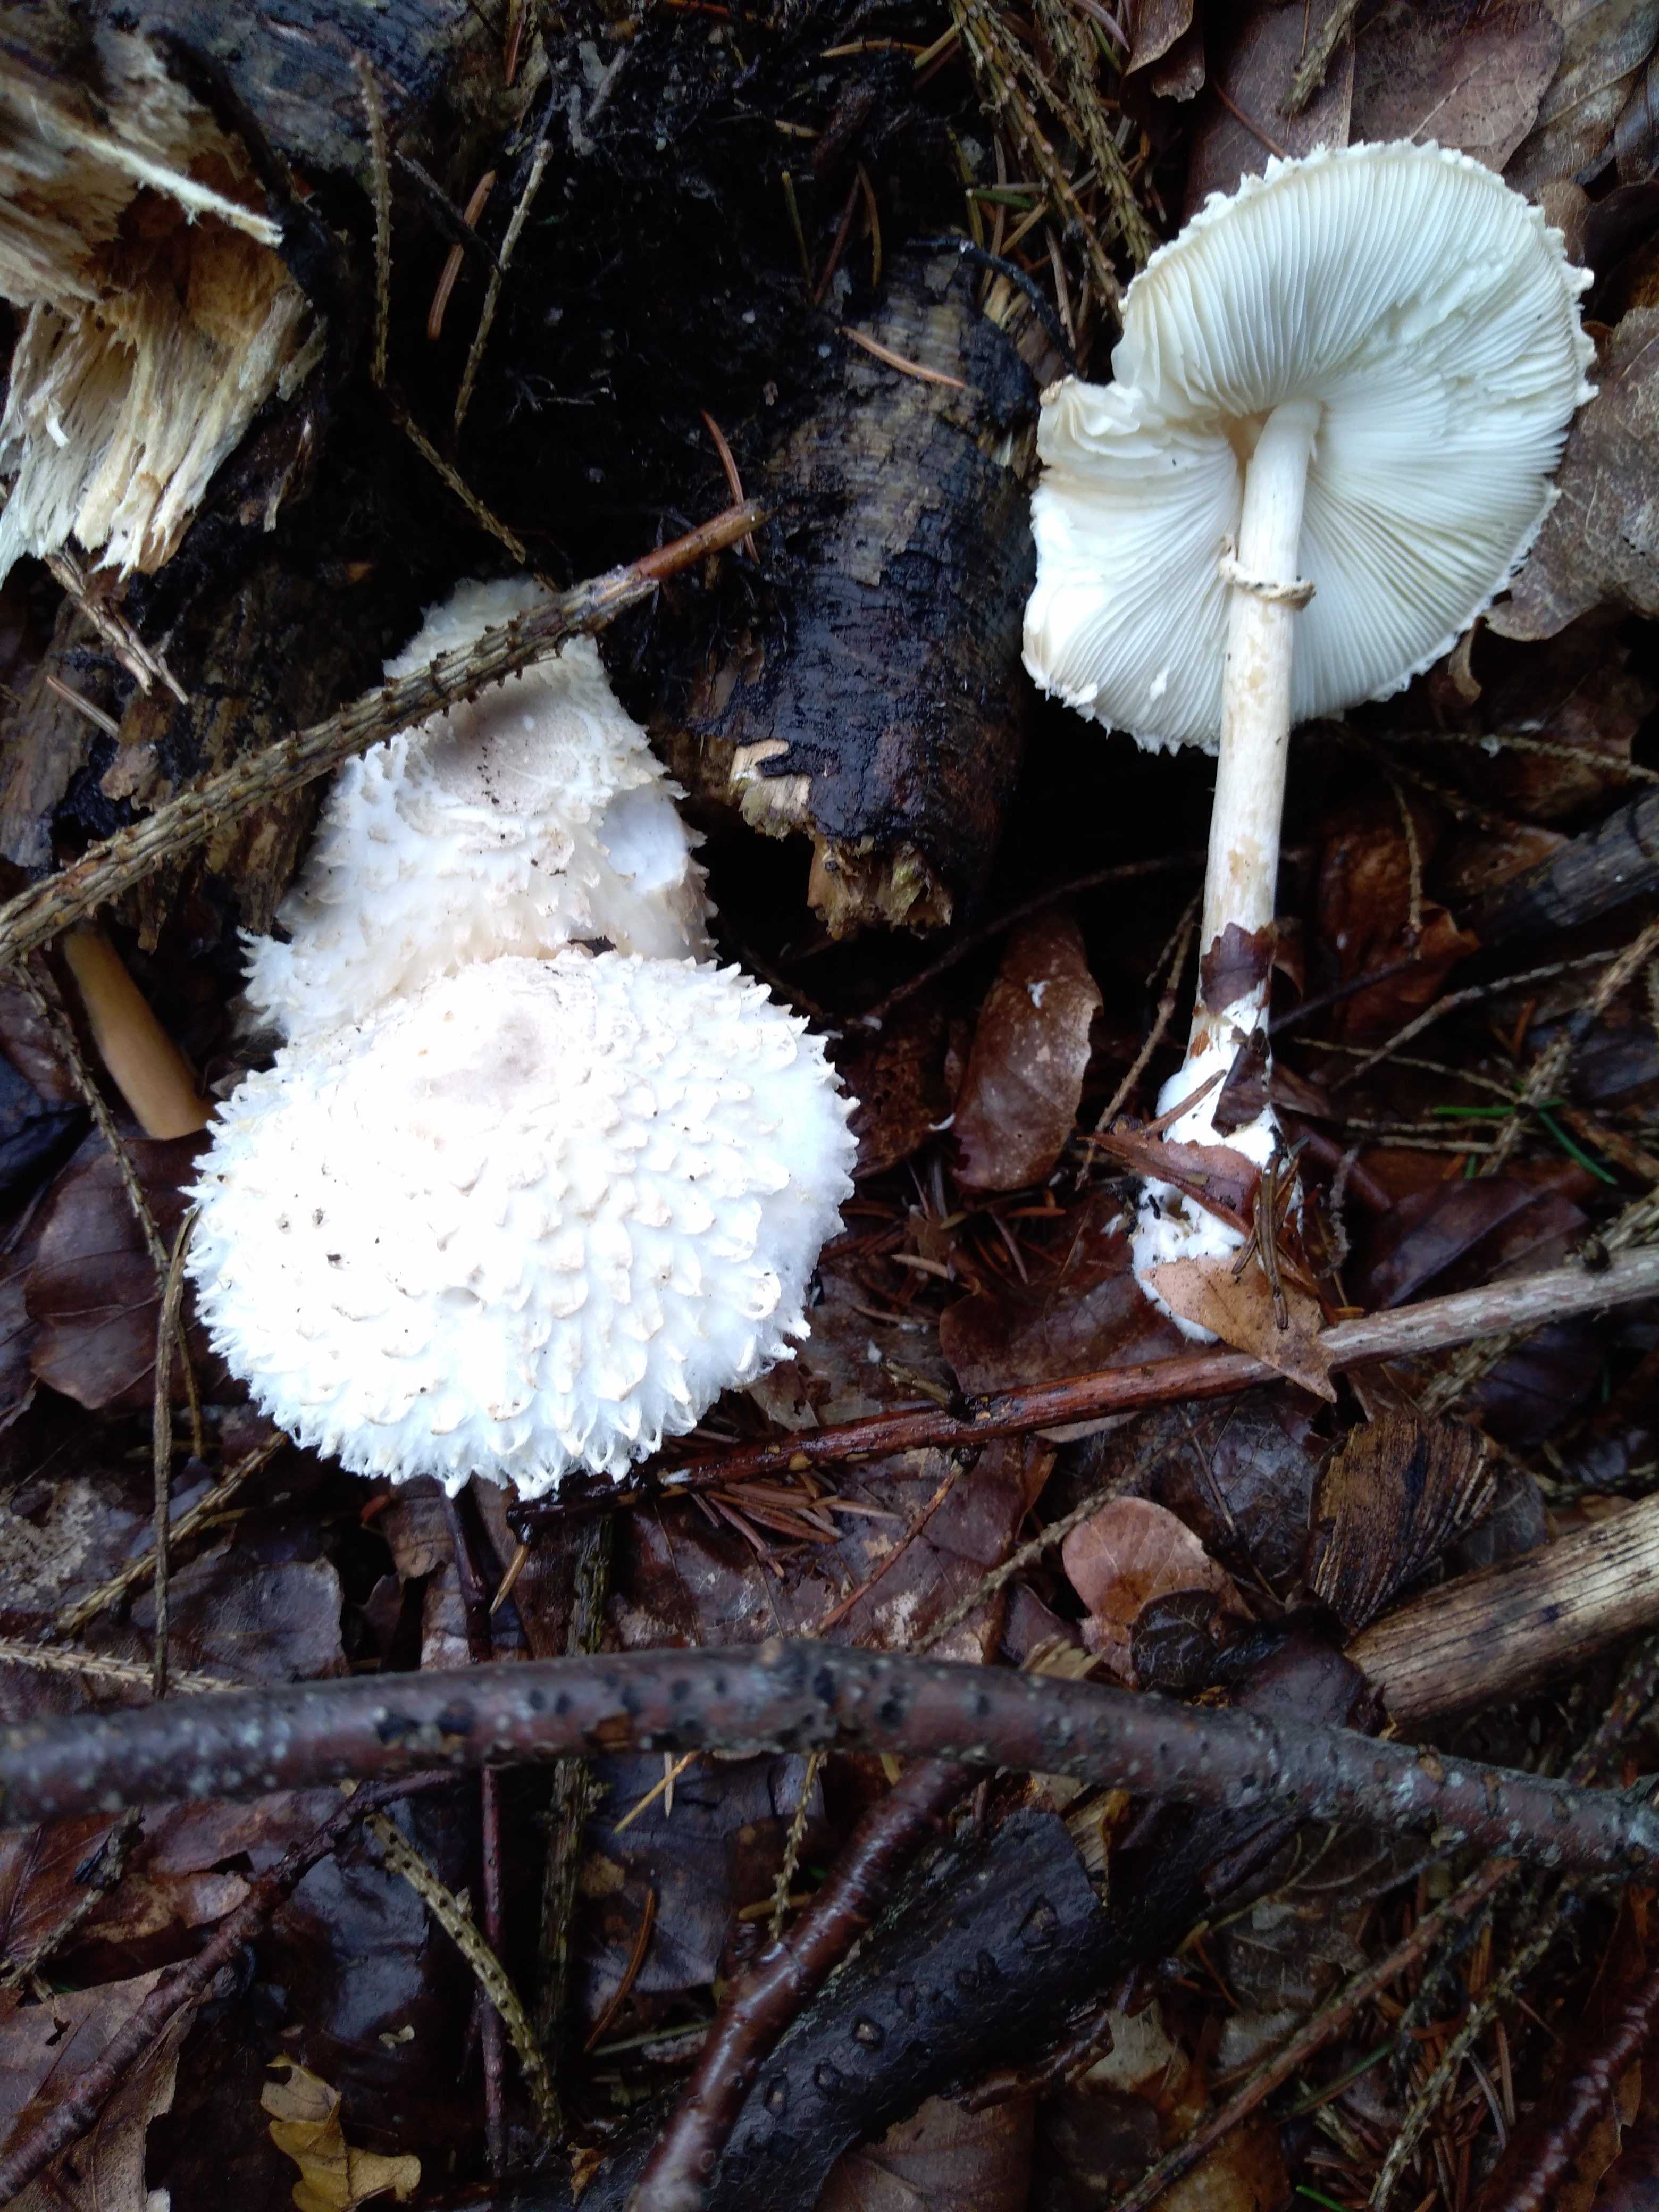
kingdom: Fungi
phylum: Basidiomycota
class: Agaricomycetes
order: Agaricales
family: Agaricaceae
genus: Leucoagaricus
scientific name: Leucoagaricus nympharum
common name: gran-silkehat
